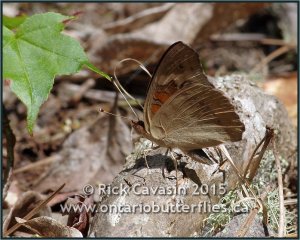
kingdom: Animalia
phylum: Arthropoda
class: Insecta
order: Lepidoptera
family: Nymphalidae
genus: Junonia
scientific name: Junonia coenia
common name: Common Buckeye
